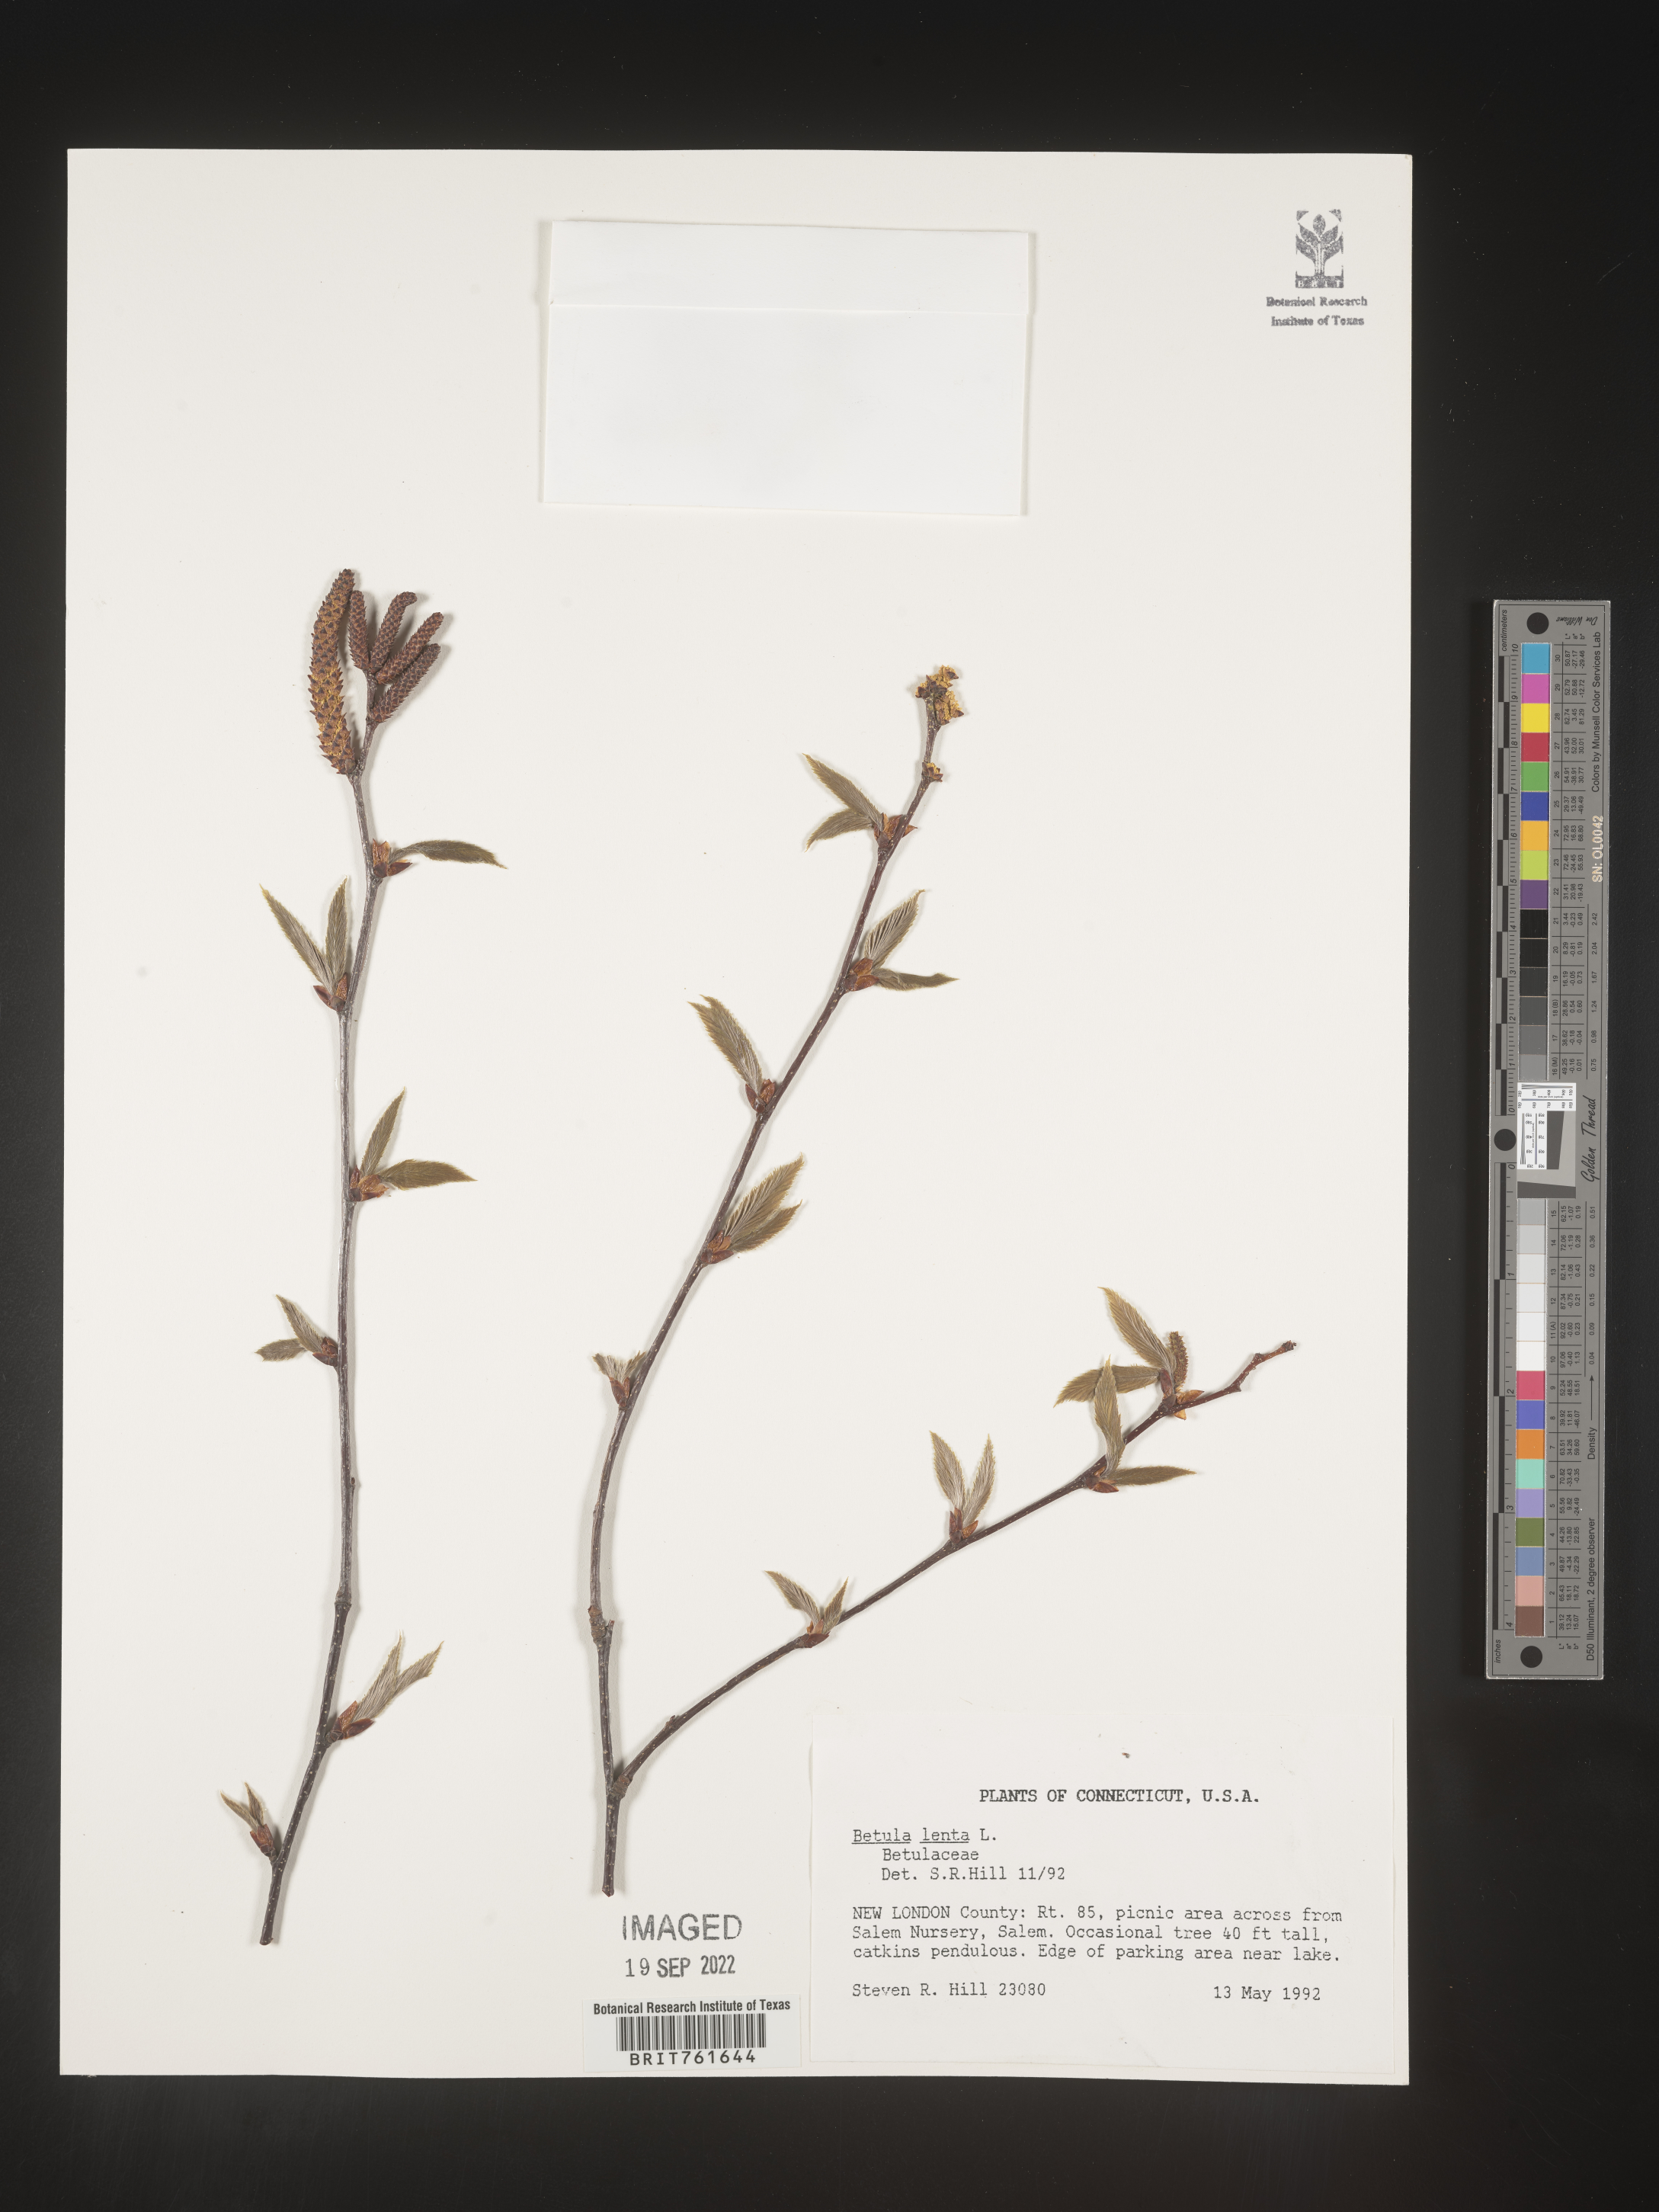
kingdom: Plantae
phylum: Tracheophyta
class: Magnoliopsida
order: Fagales
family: Betulaceae
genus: Betula
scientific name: Betula lenta
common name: Black birch
